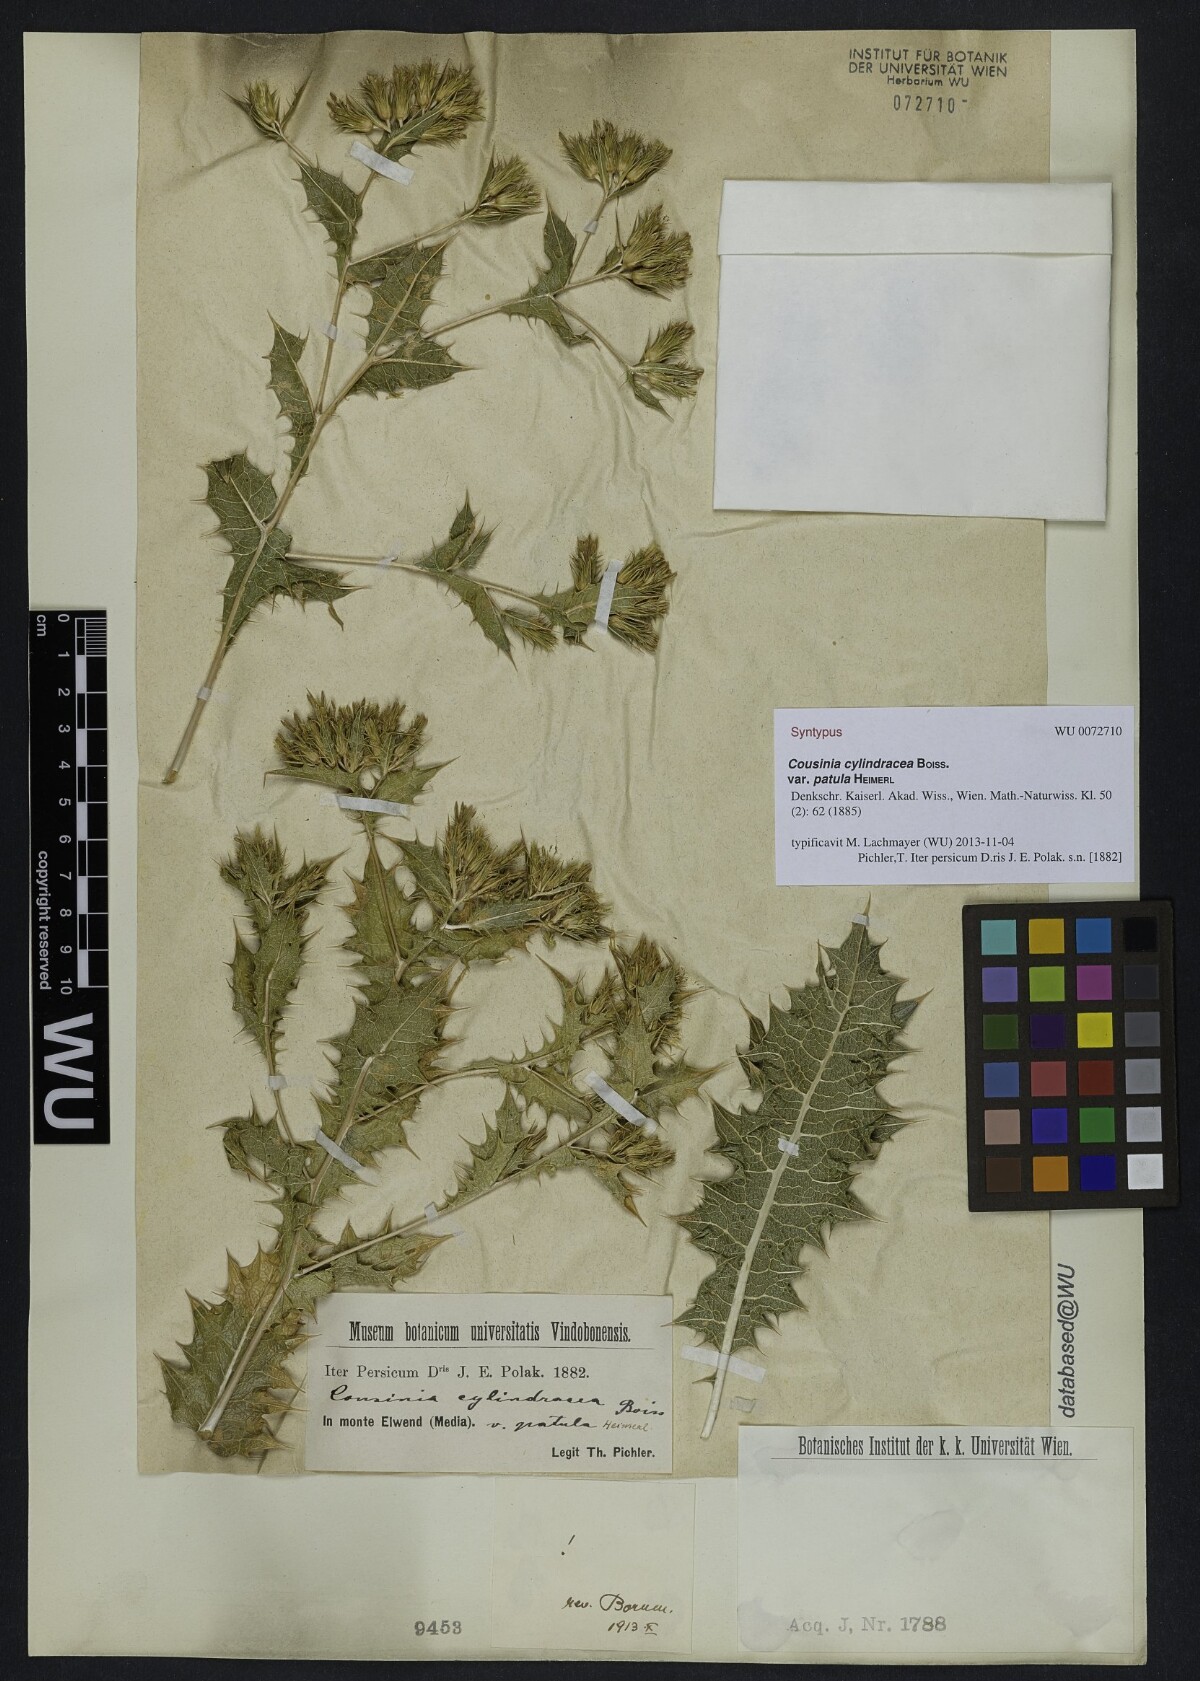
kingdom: Plantae
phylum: Tracheophyta
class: Magnoliopsida
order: Asterales
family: Asteraceae
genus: Cousinia
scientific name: Cousinia cylindracea
